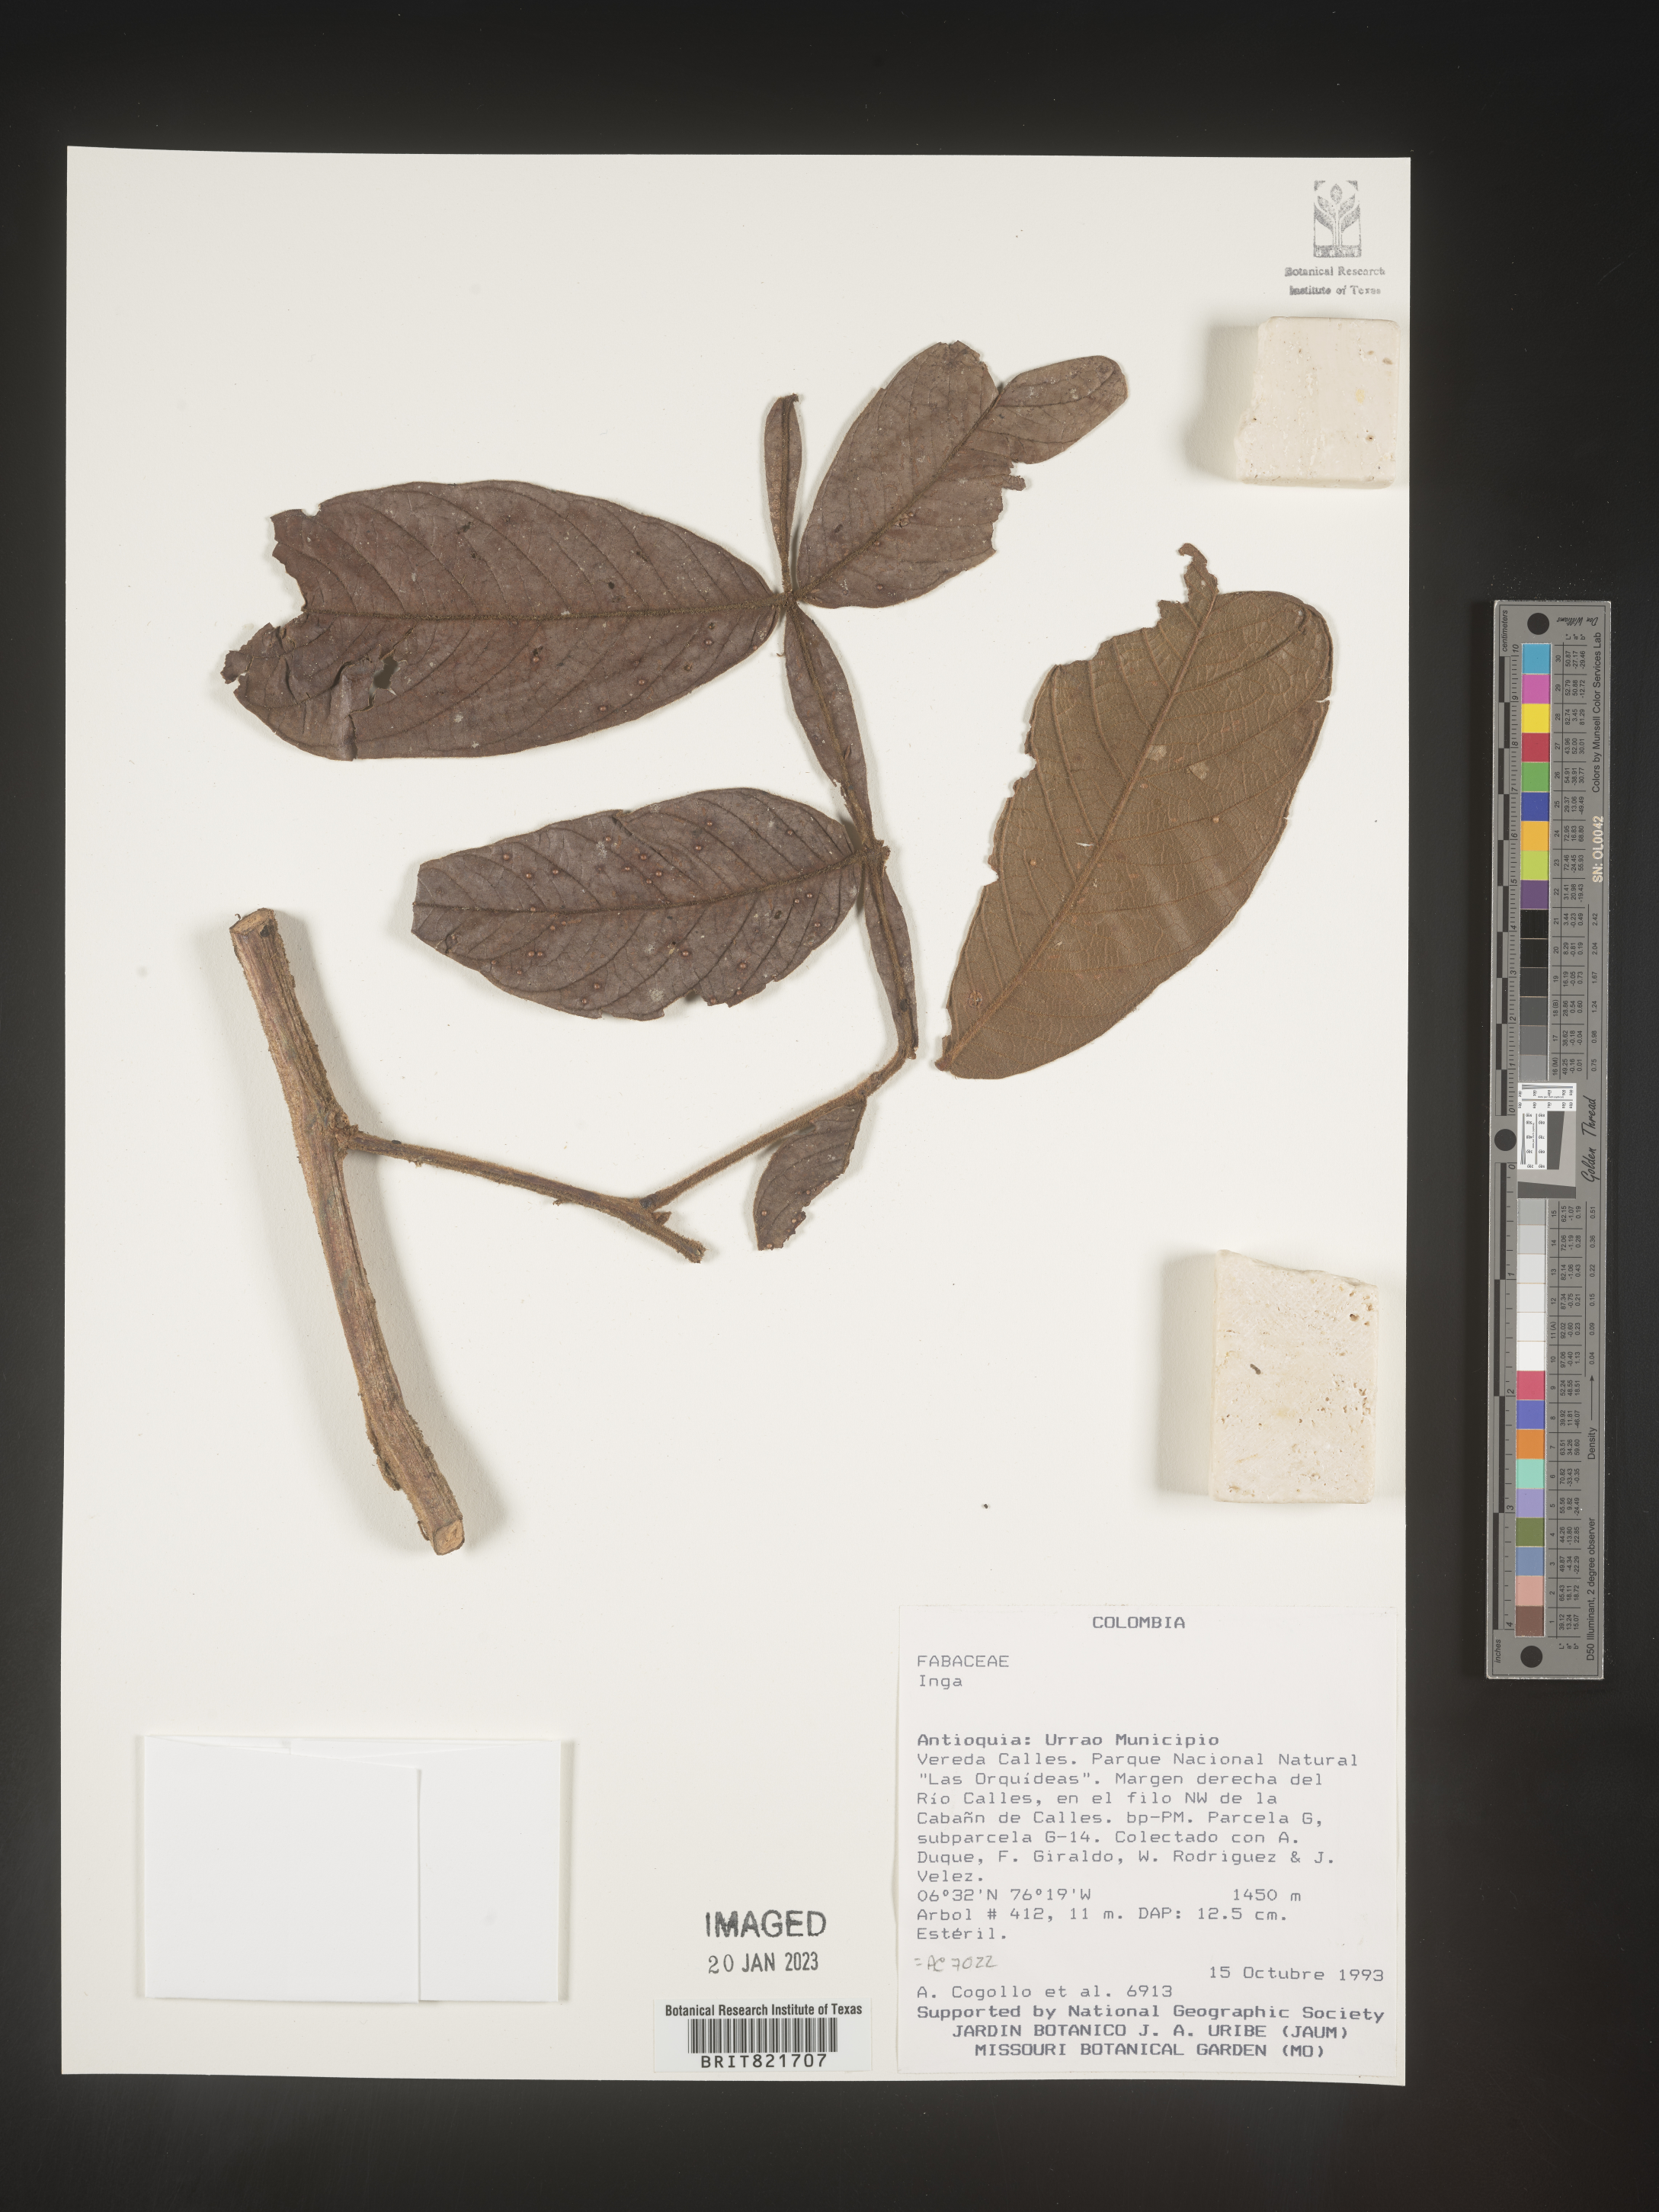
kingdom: Plantae
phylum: Tracheophyta
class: Magnoliopsida
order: Fabales
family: Fabaceae
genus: Inga
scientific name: Inga
